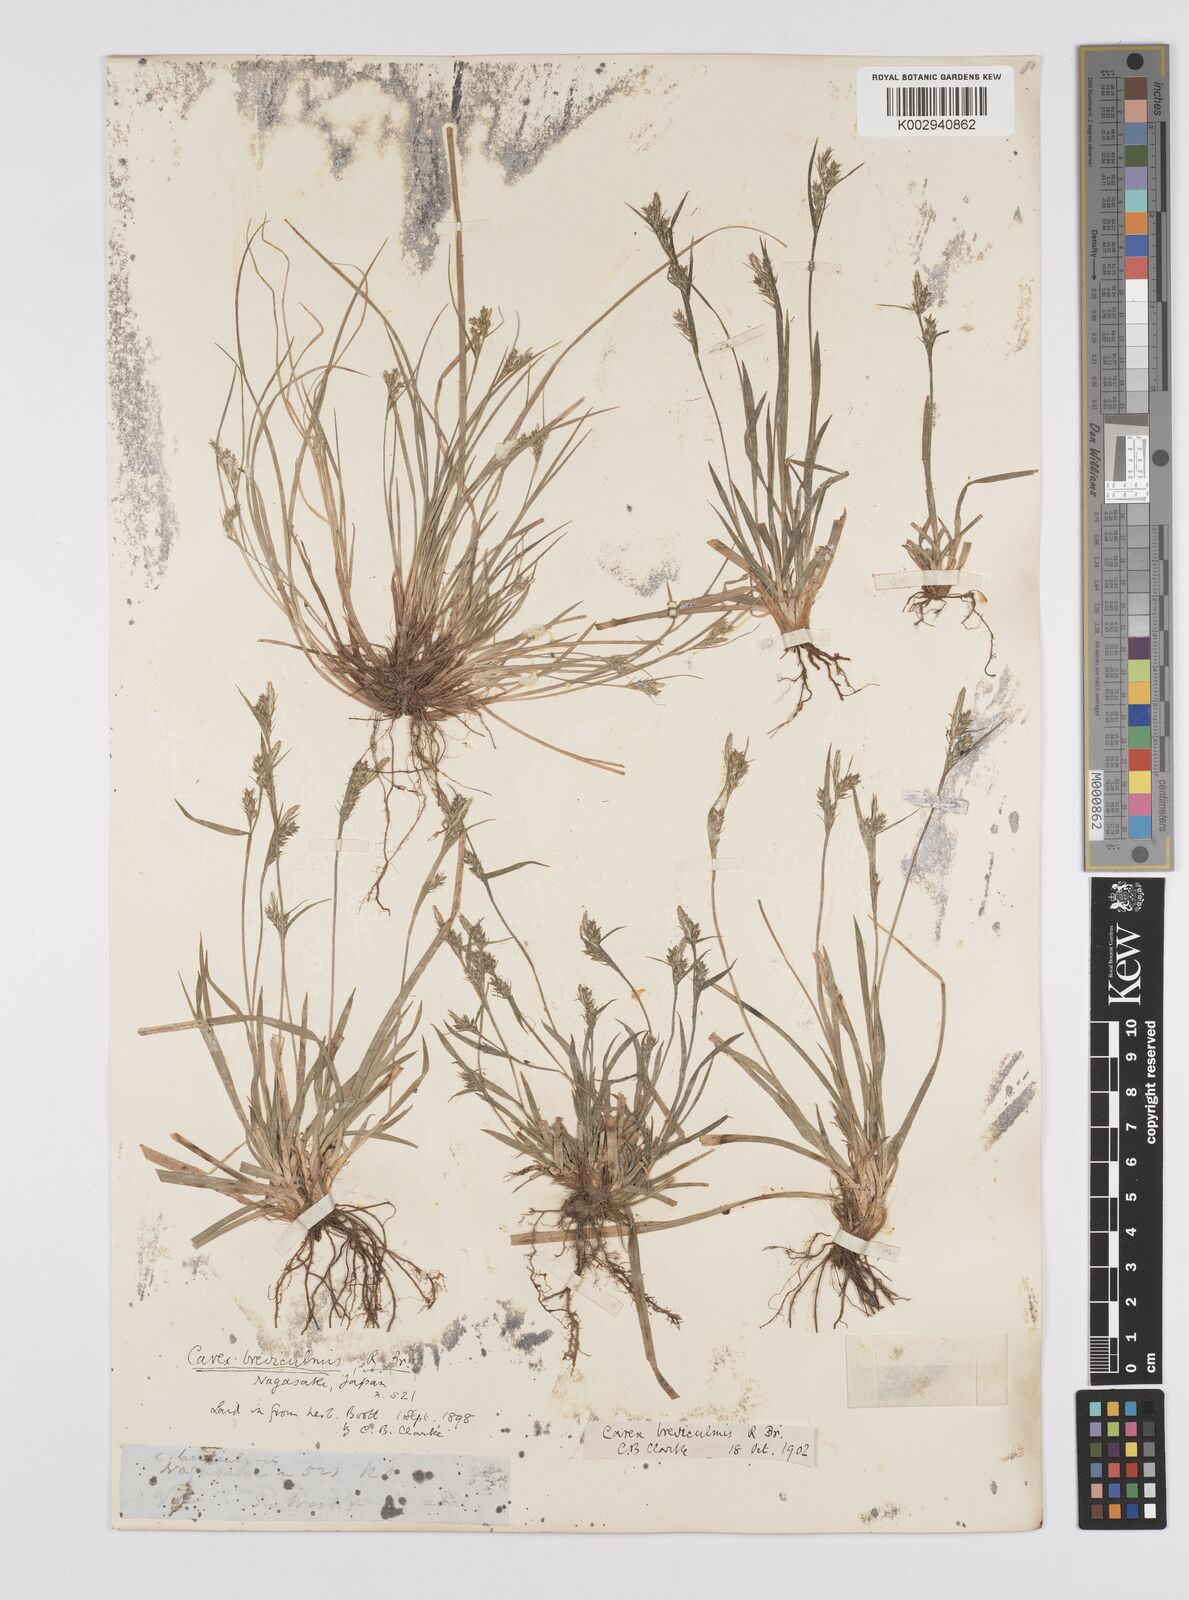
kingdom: Plantae
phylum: Tracheophyta
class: Liliopsida
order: Poales
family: Cyperaceae
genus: Carex
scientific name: Carex breviculmis
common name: Asian shortstem sedge
